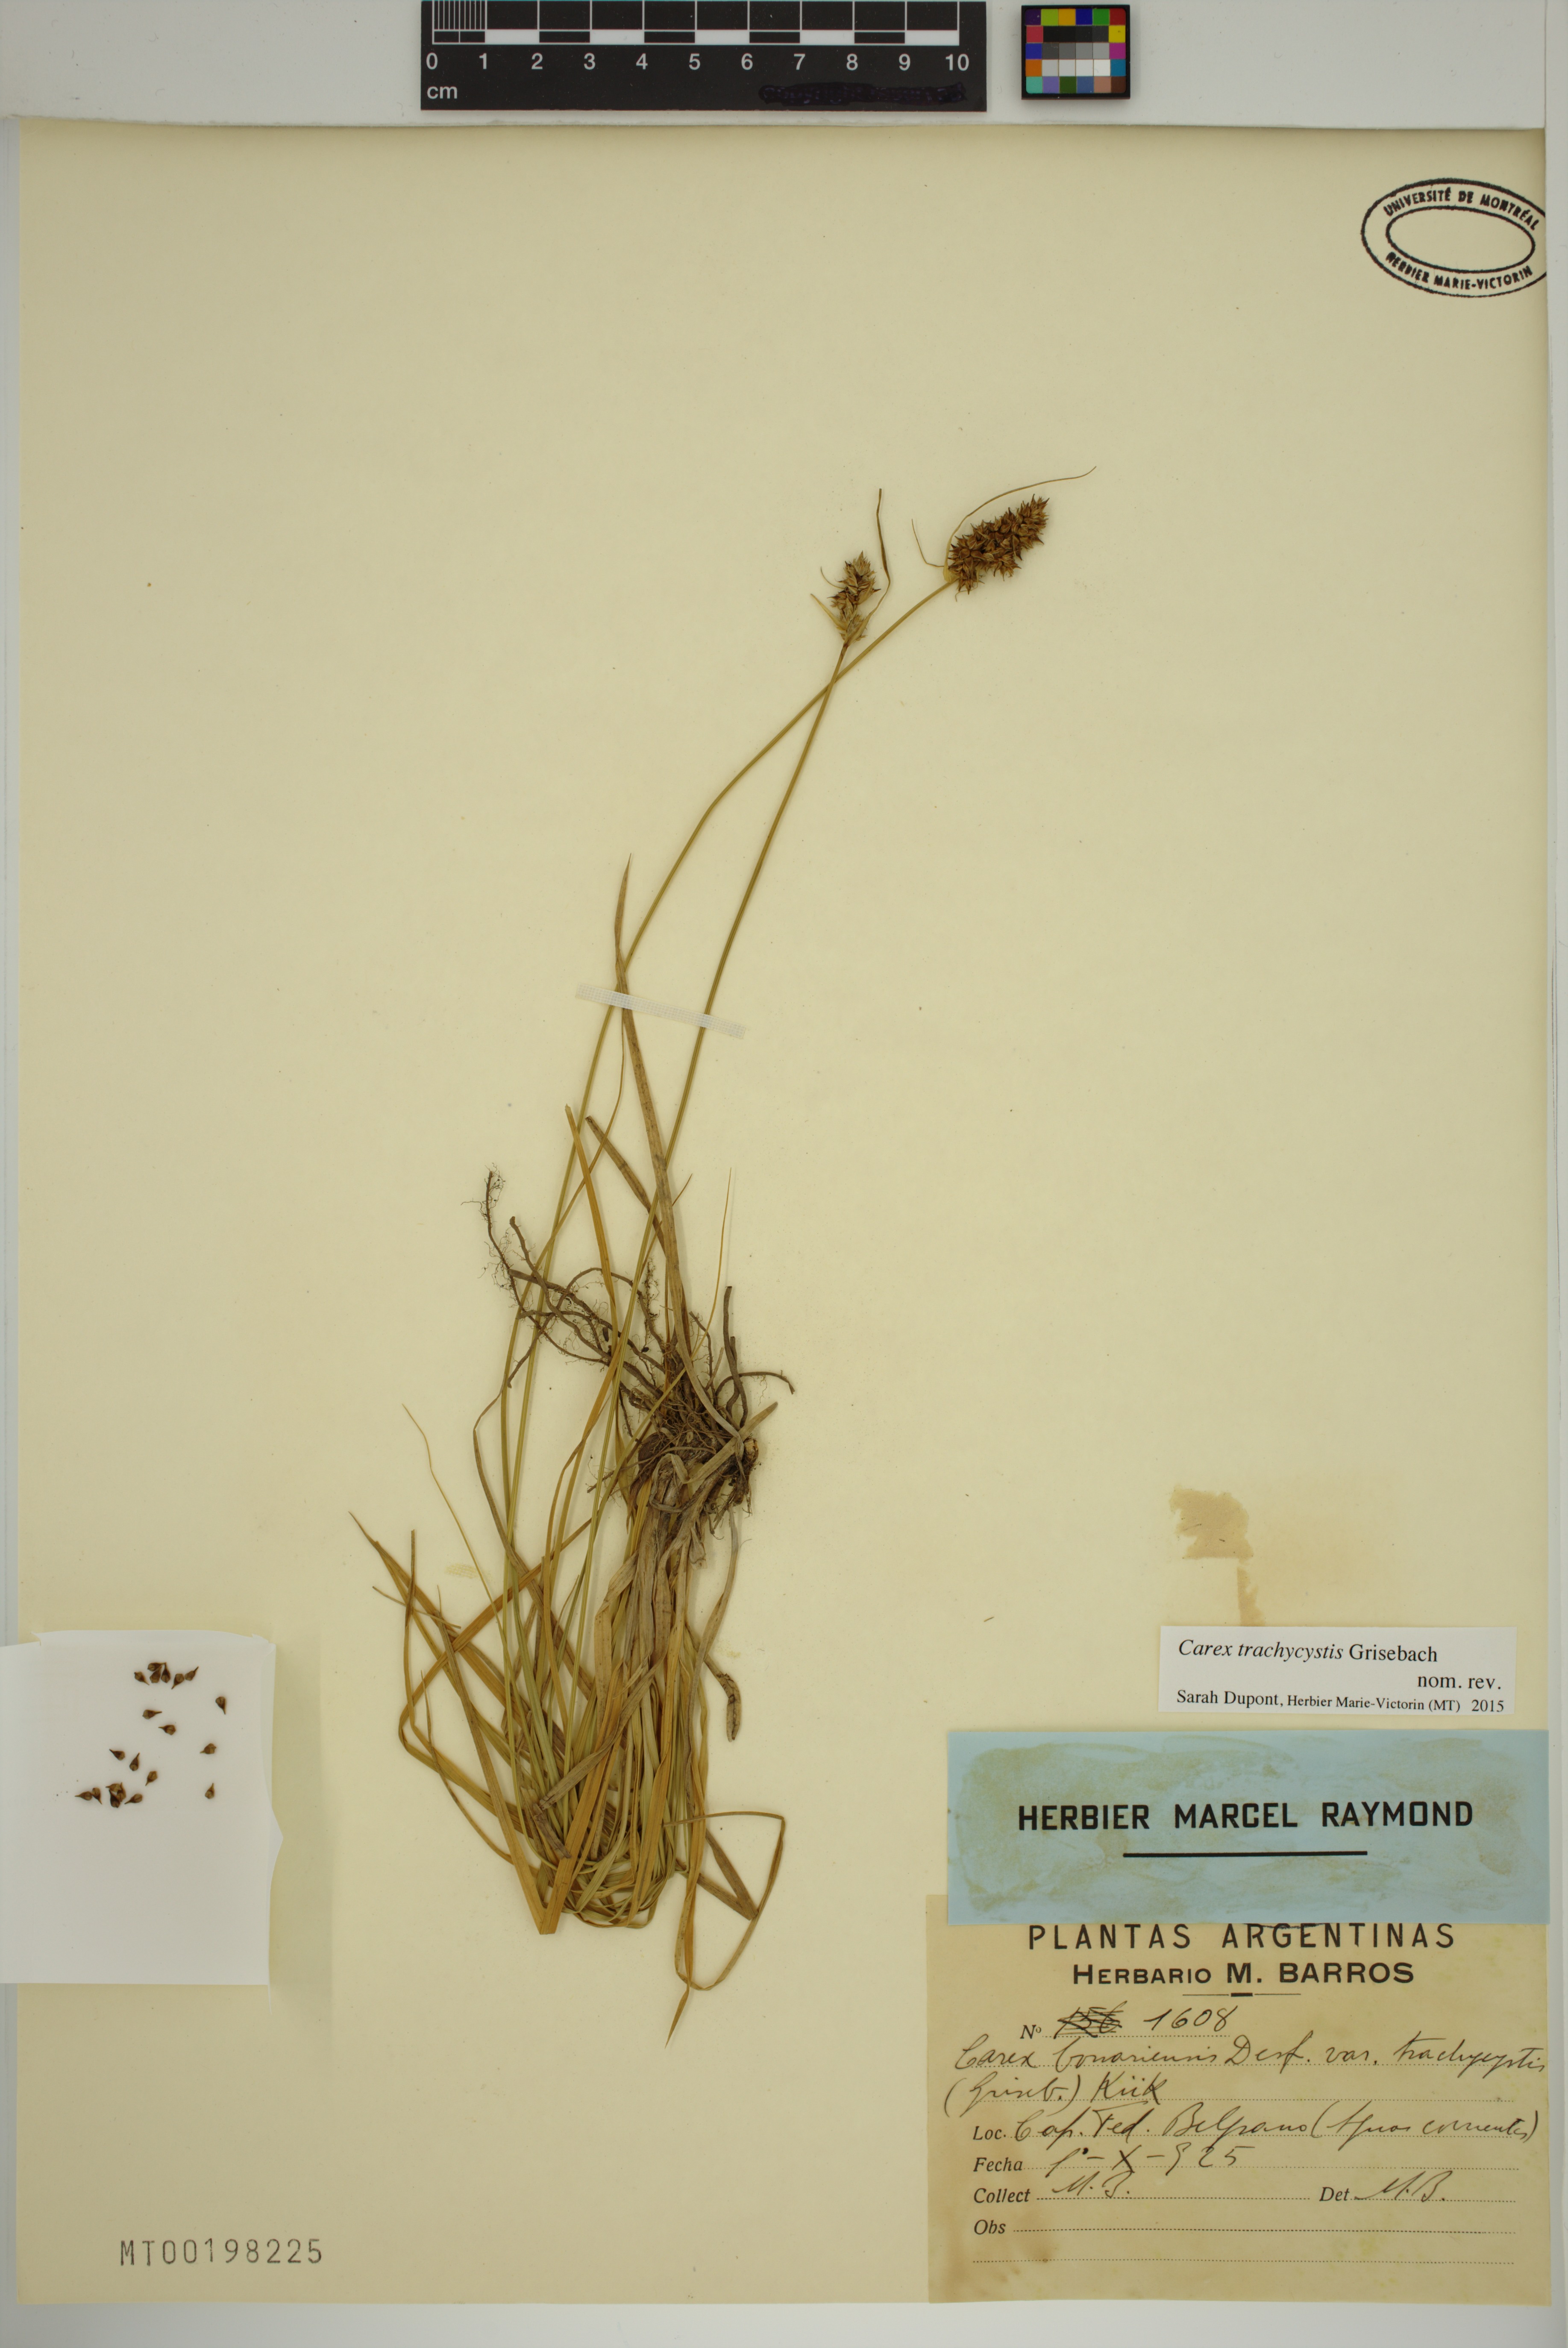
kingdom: Plantae
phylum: Tracheophyta
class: Liliopsida
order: Poales
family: Cyperaceae
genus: Carex
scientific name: Carex bonariensis
